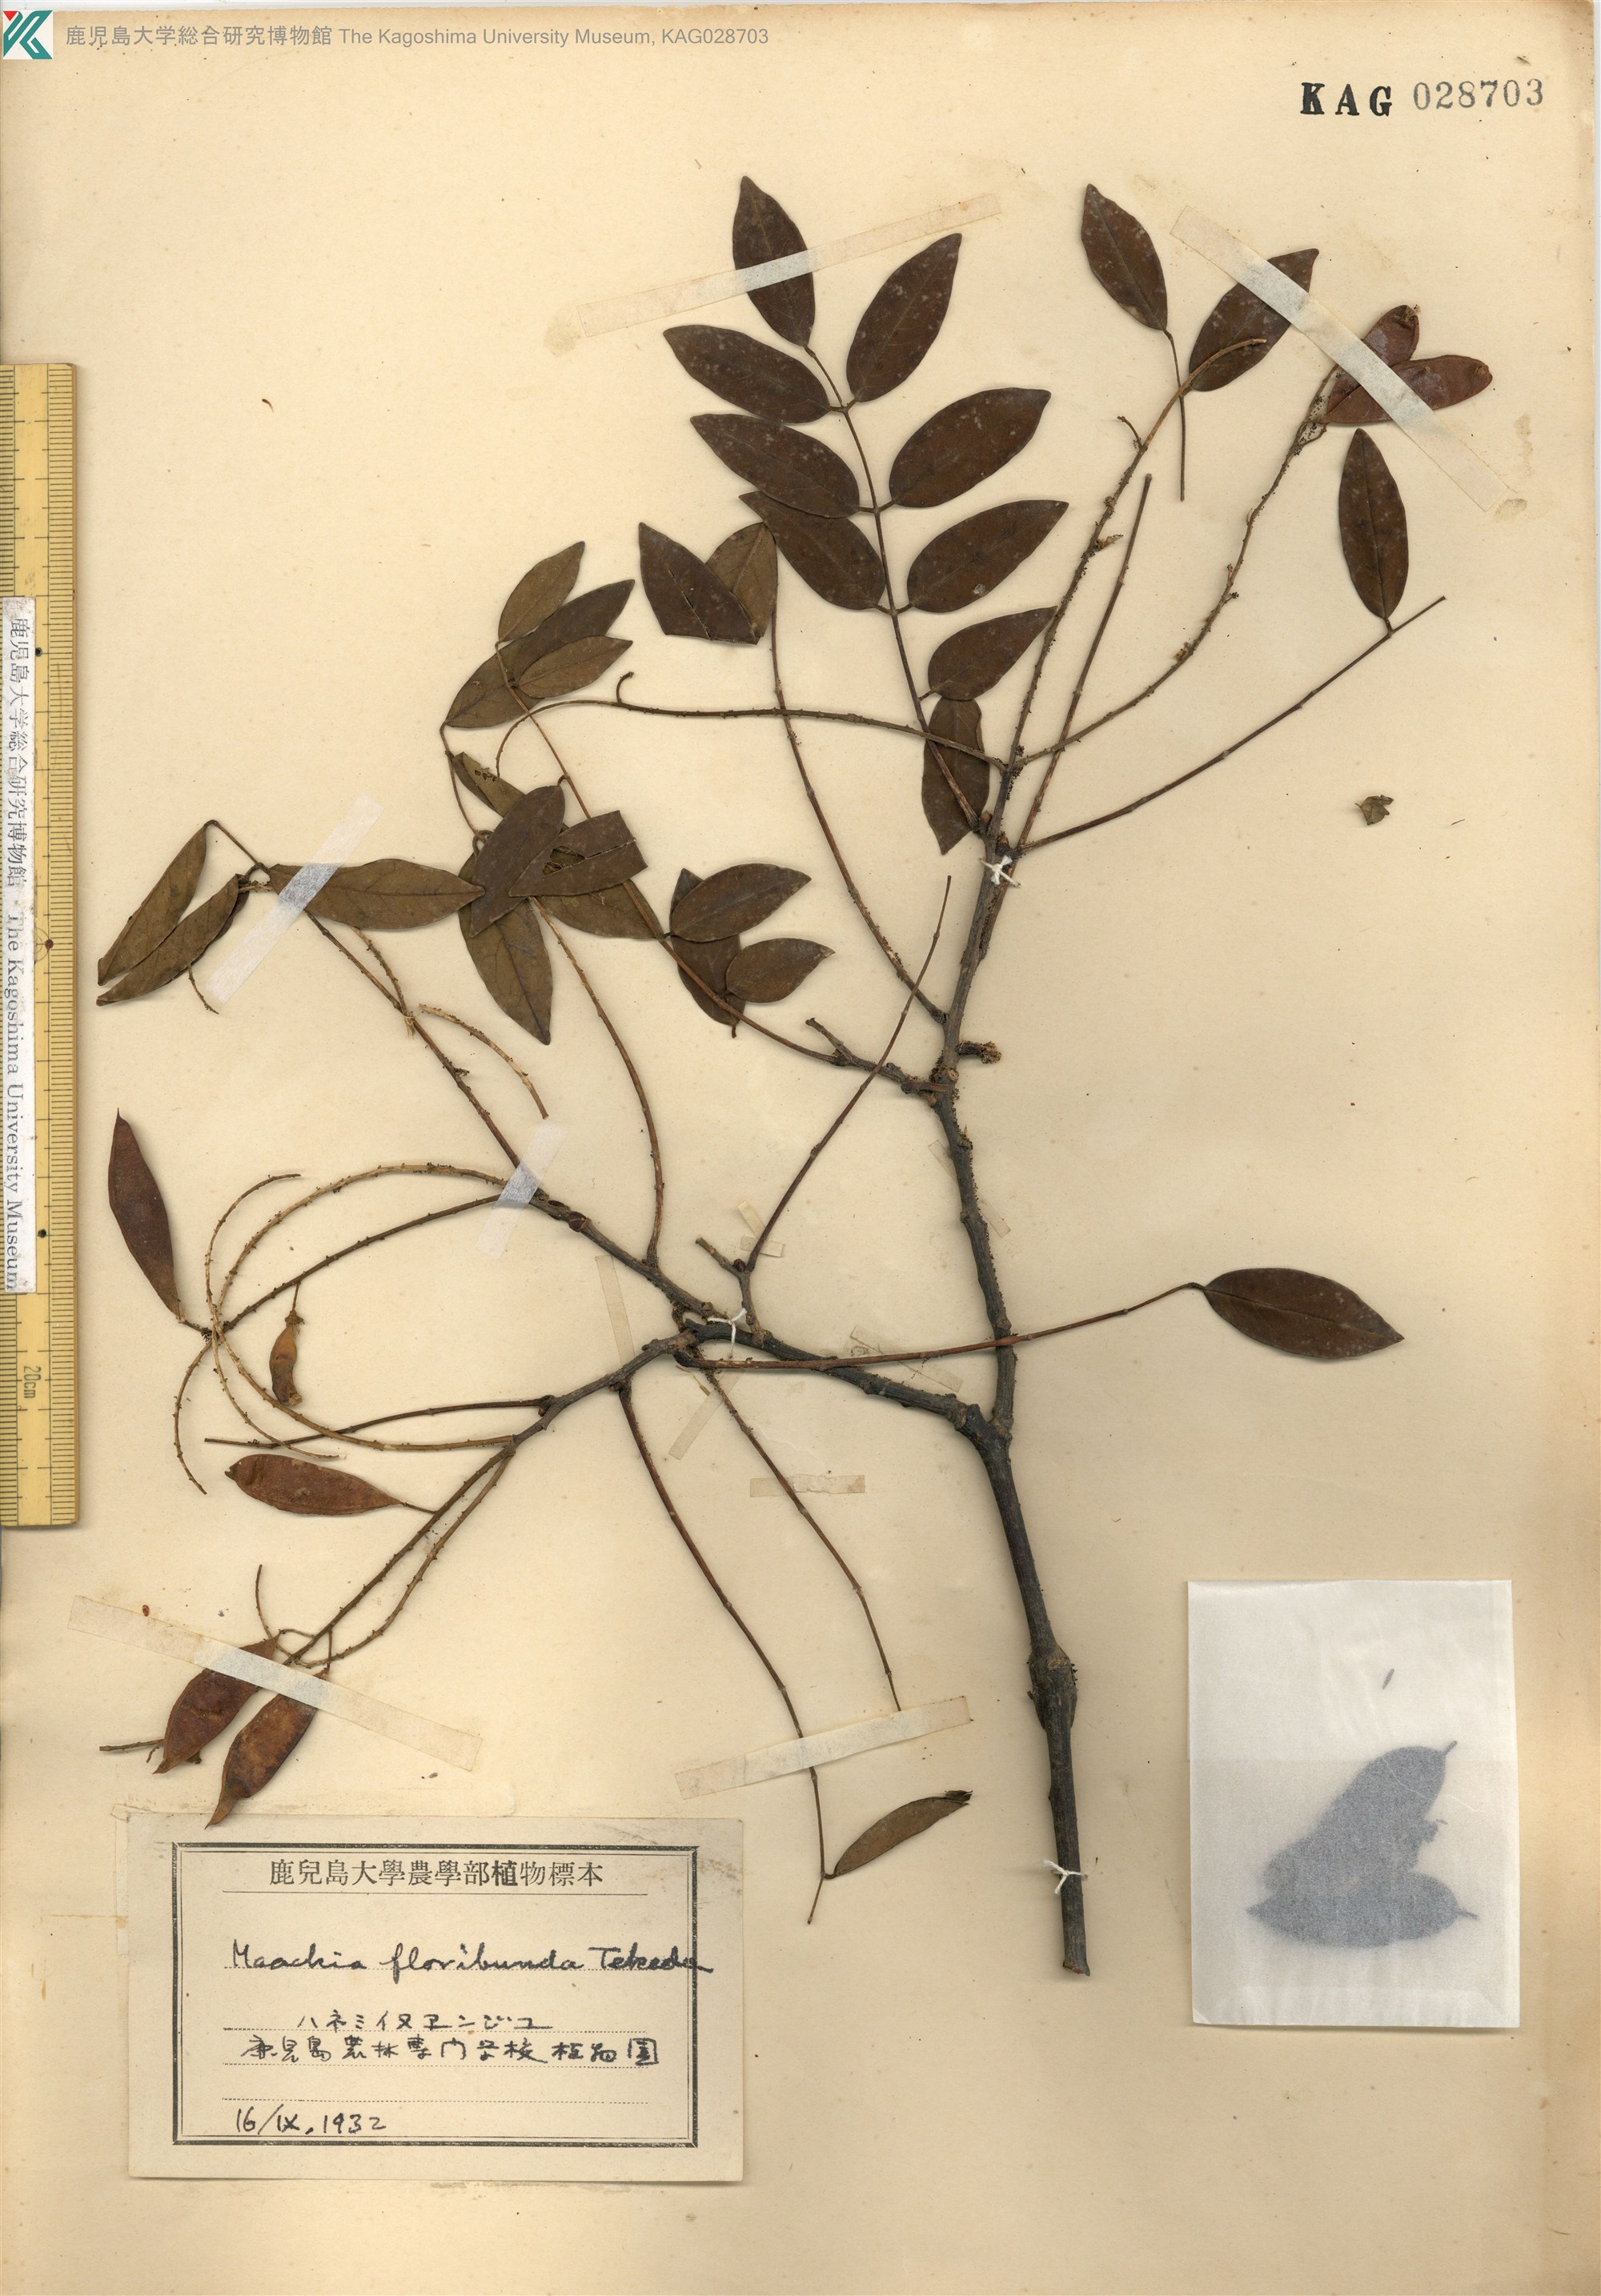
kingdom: Plantae
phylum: Tracheophyta
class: Magnoliopsida
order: Fabales
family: Fabaceae
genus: Maackia
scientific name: Maackia amurensis
